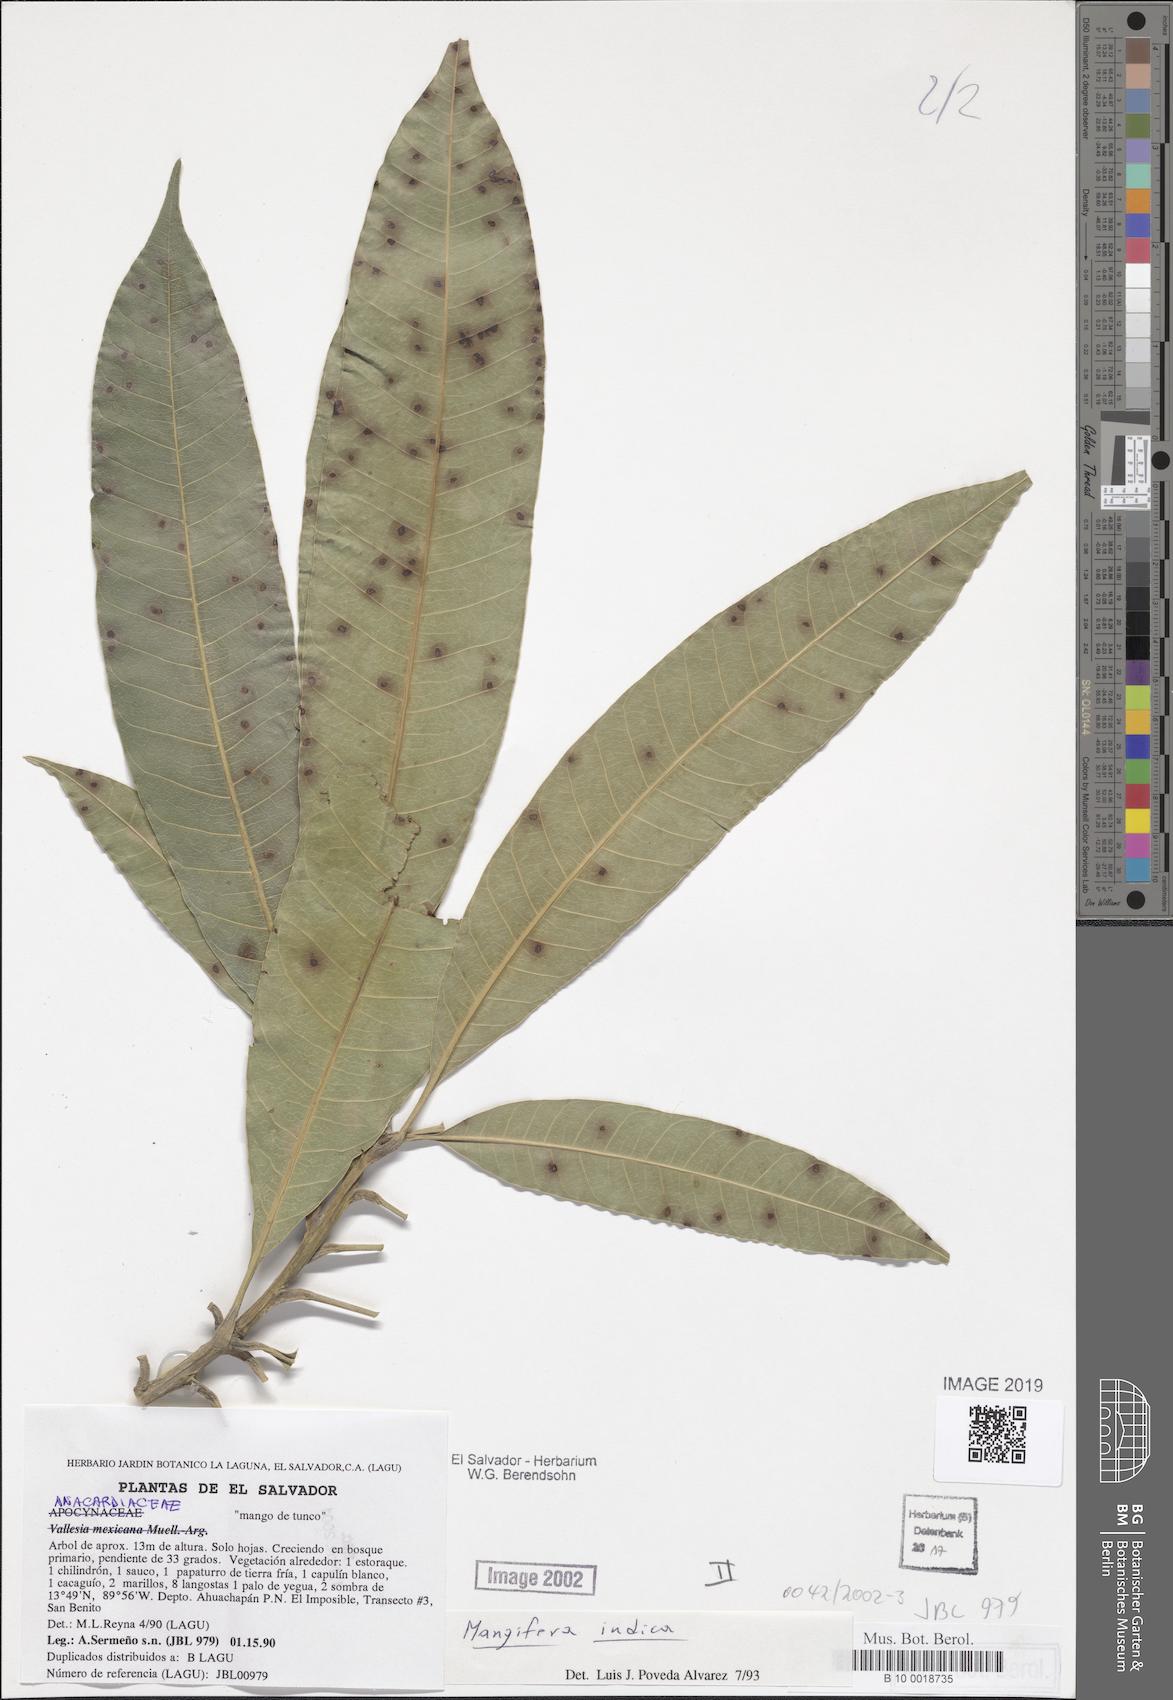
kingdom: Plantae
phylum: Tracheophyta
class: Magnoliopsida
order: Sapindales
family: Anacardiaceae
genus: Mangifera
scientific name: Mangifera indica
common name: Mango
